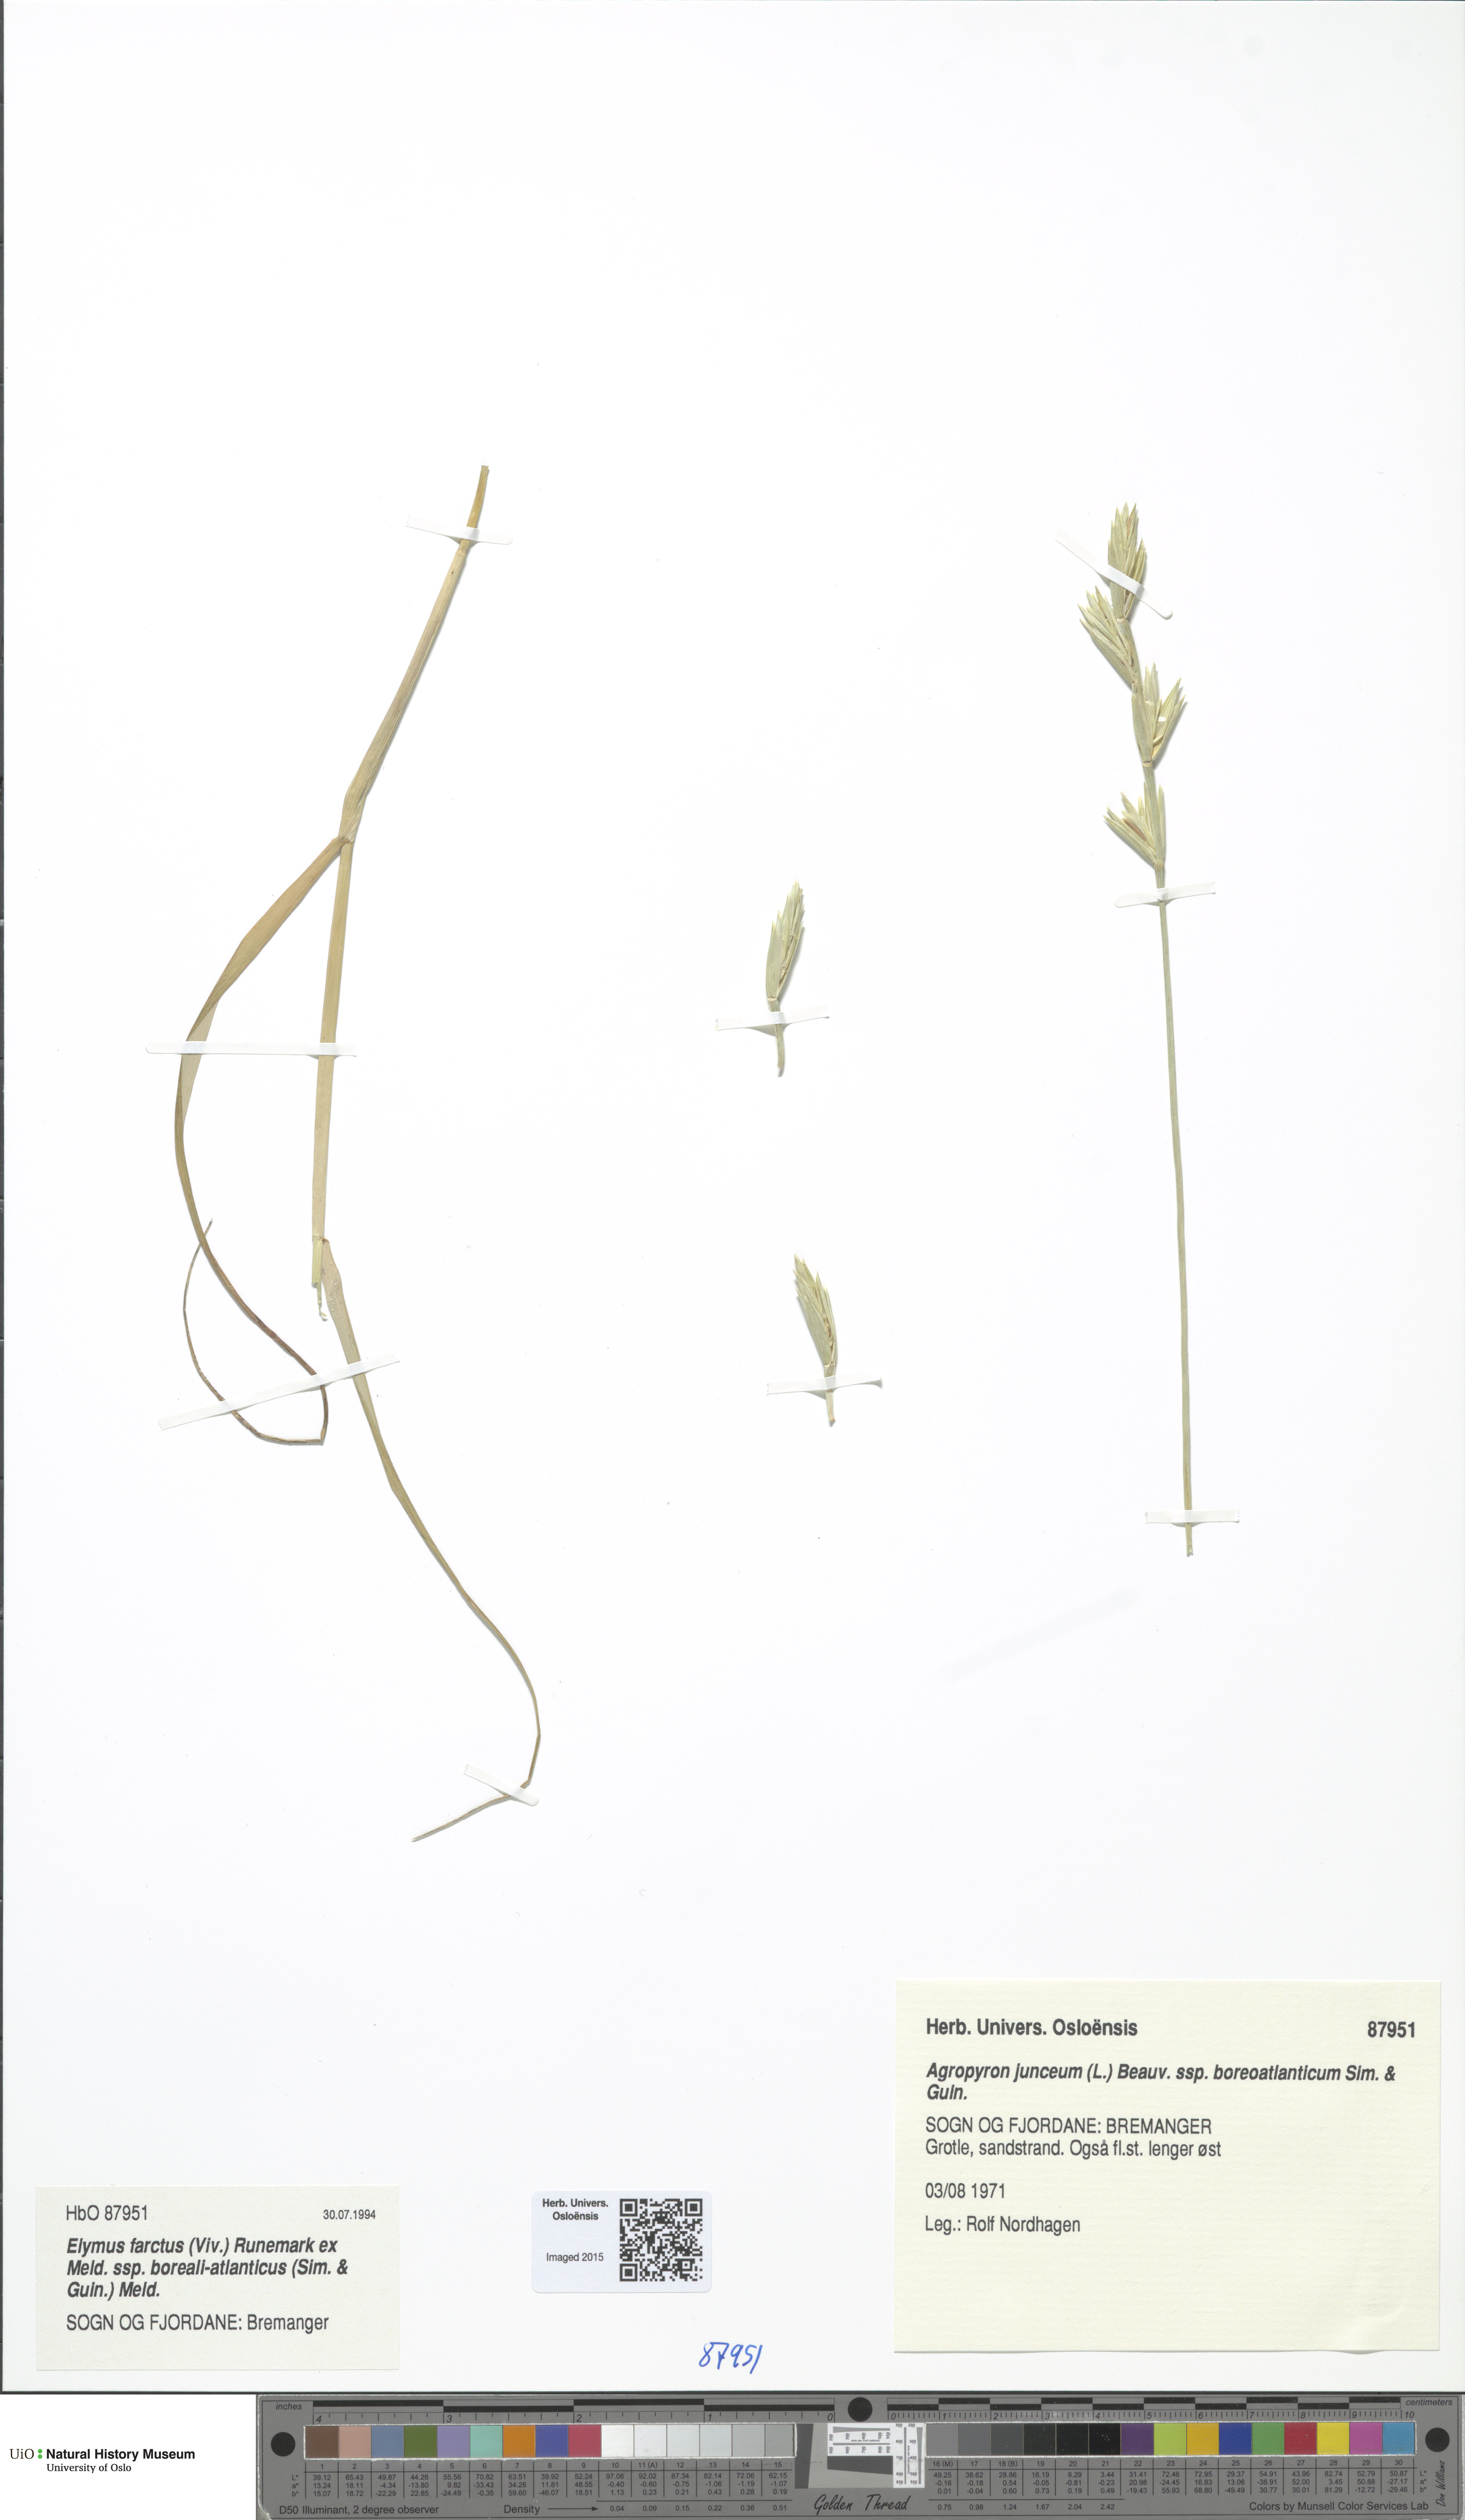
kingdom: Plantae
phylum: Tracheophyta
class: Liliopsida
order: Poales
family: Poaceae
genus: Thinopyrum
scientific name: Thinopyrum junceiforme
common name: Sea couch
